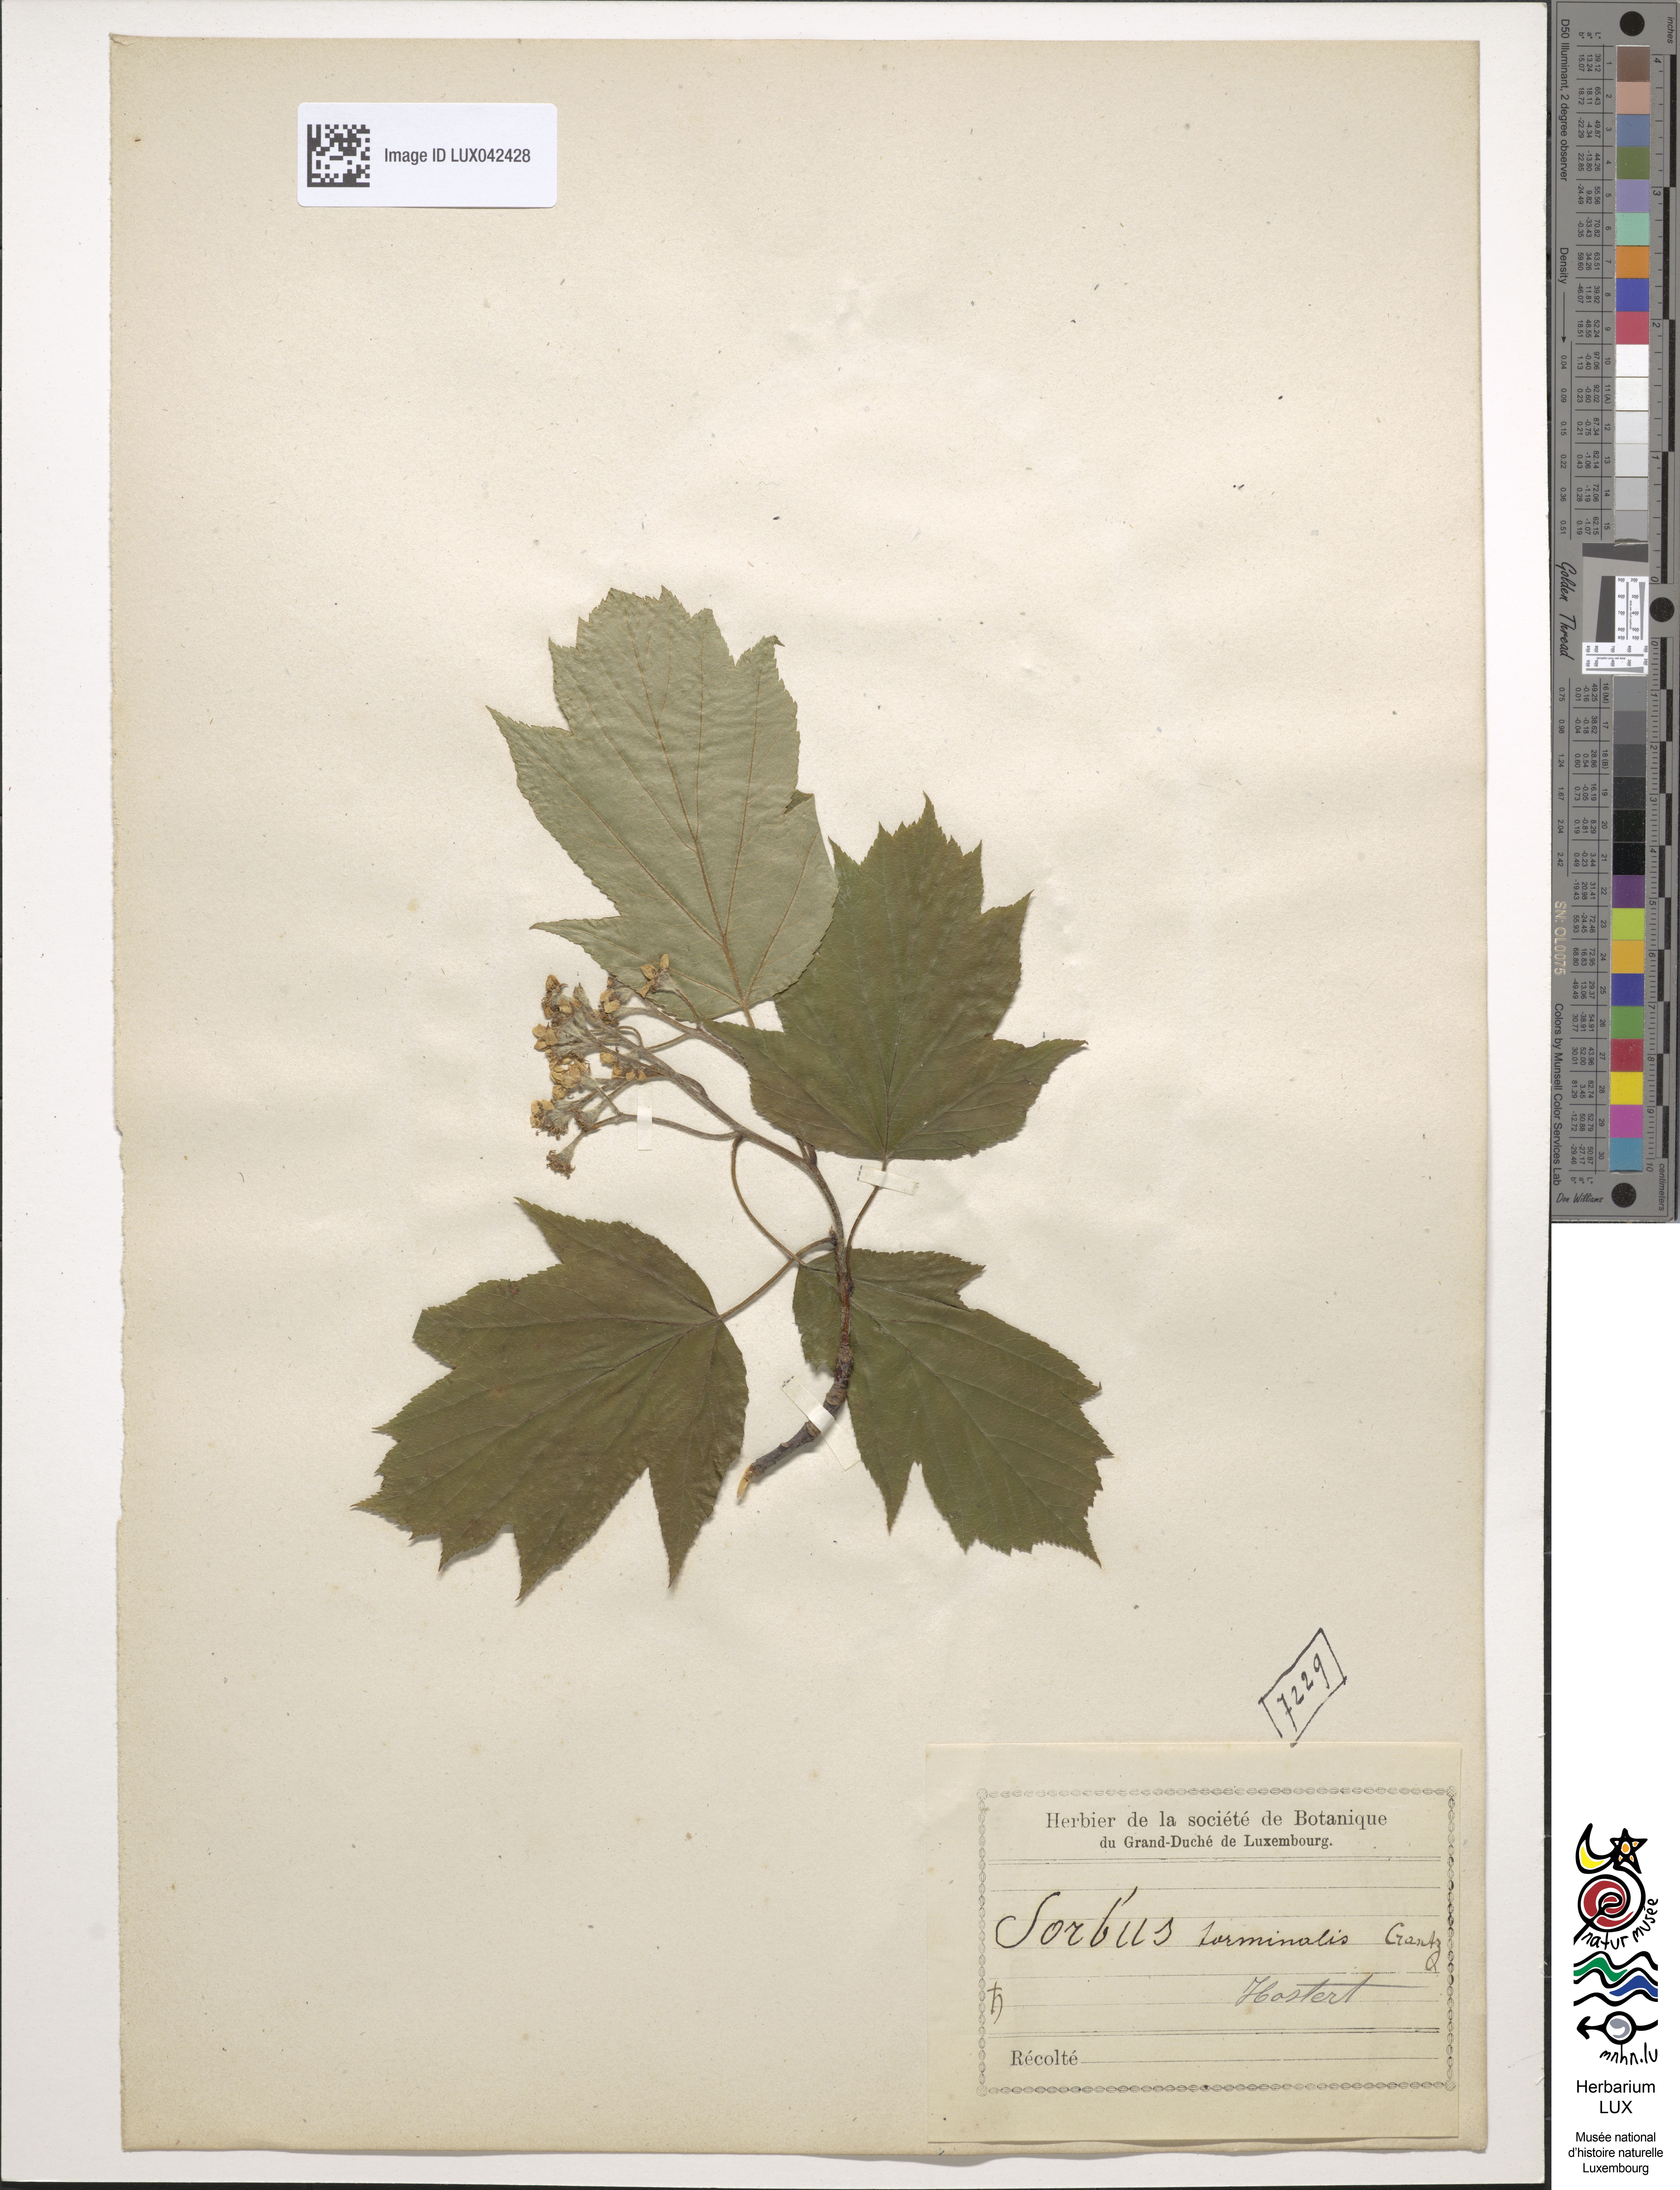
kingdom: Plantae
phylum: Tracheophyta
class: Magnoliopsida
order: Rosales
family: Rosaceae
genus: Torminalis
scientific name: Torminalis glaberrima
